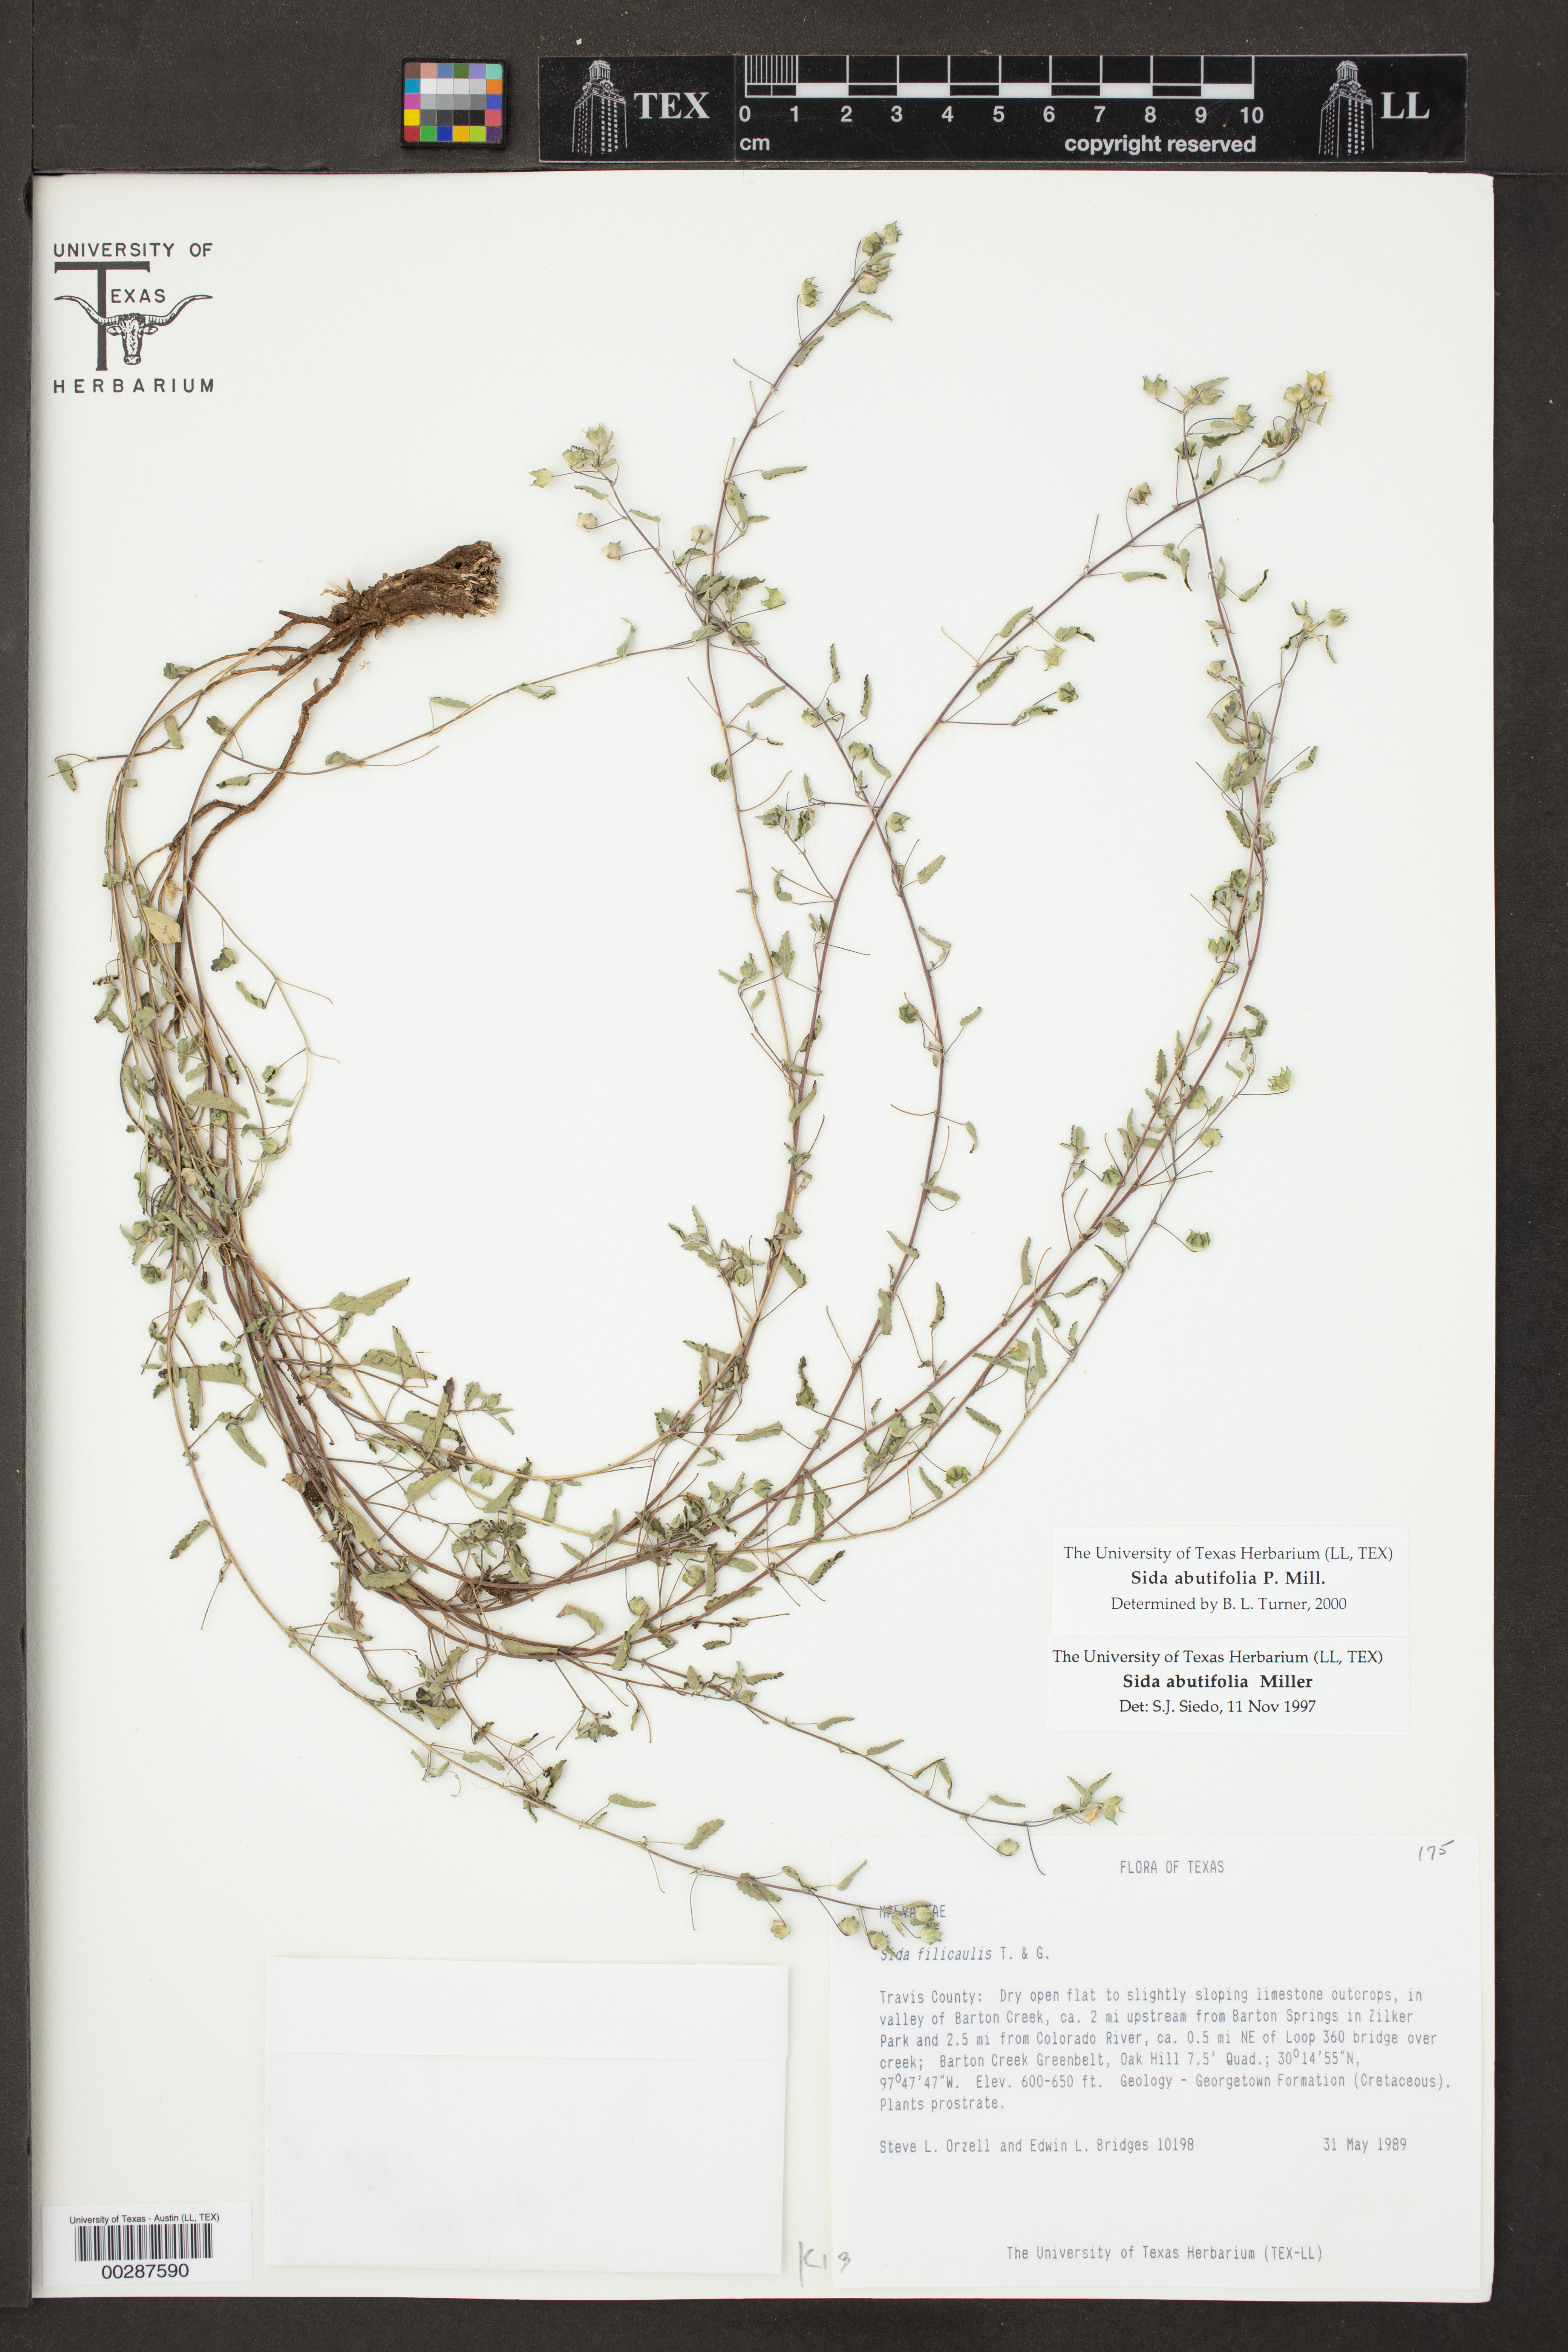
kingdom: Plantae
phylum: Tracheophyta
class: Magnoliopsida
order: Malvales
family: Malvaceae
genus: Sida
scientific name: Sida abutilifolia
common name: Spreading fanpetals
